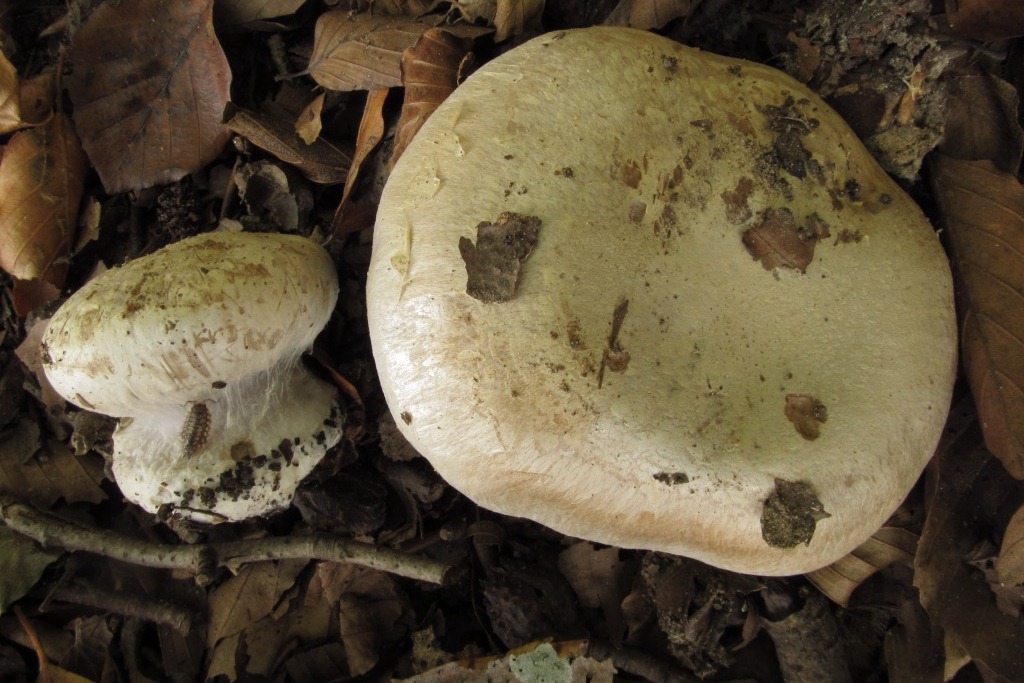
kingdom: Fungi
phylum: Basidiomycota
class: Agaricomycetes
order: Agaricales
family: Cortinariaceae
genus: Cortinarius
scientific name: Cortinarius foetens
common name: stribet slørhat
